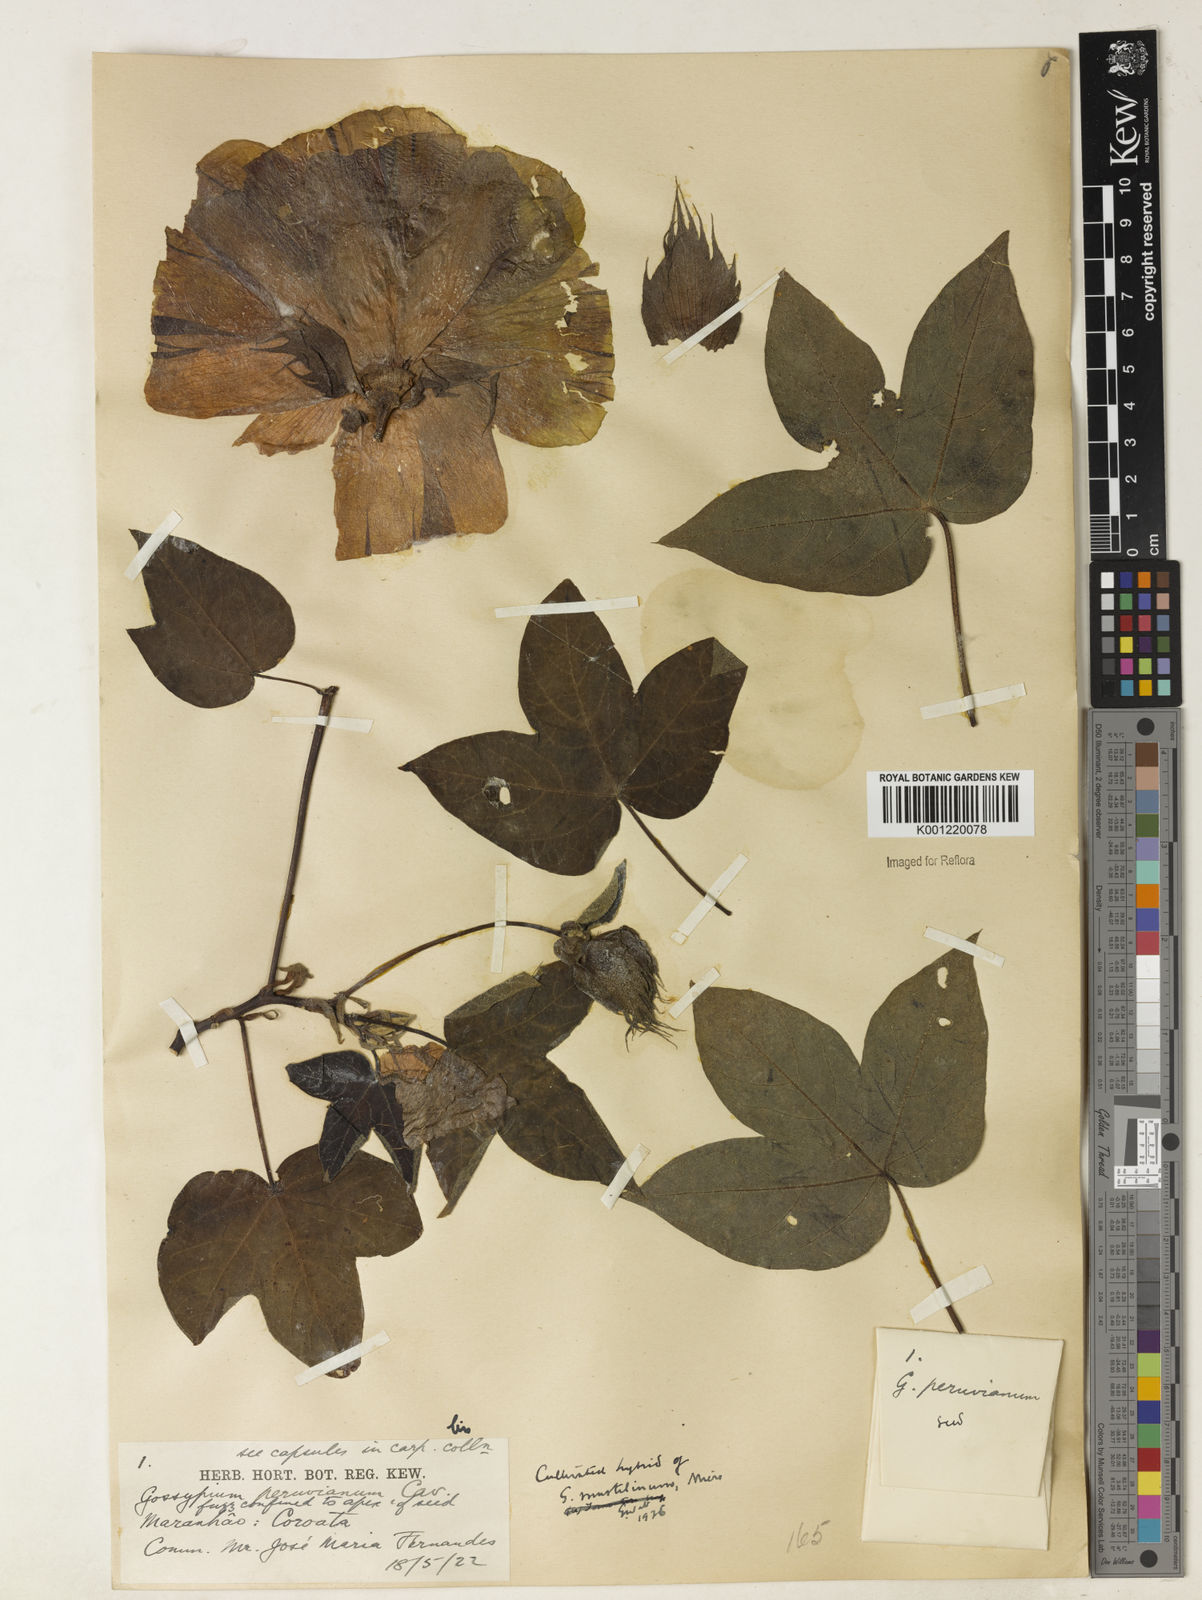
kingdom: Plantae
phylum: Tracheophyta
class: Magnoliopsida
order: Malvales
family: Malvaceae
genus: Gossypium
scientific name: Gossypium
